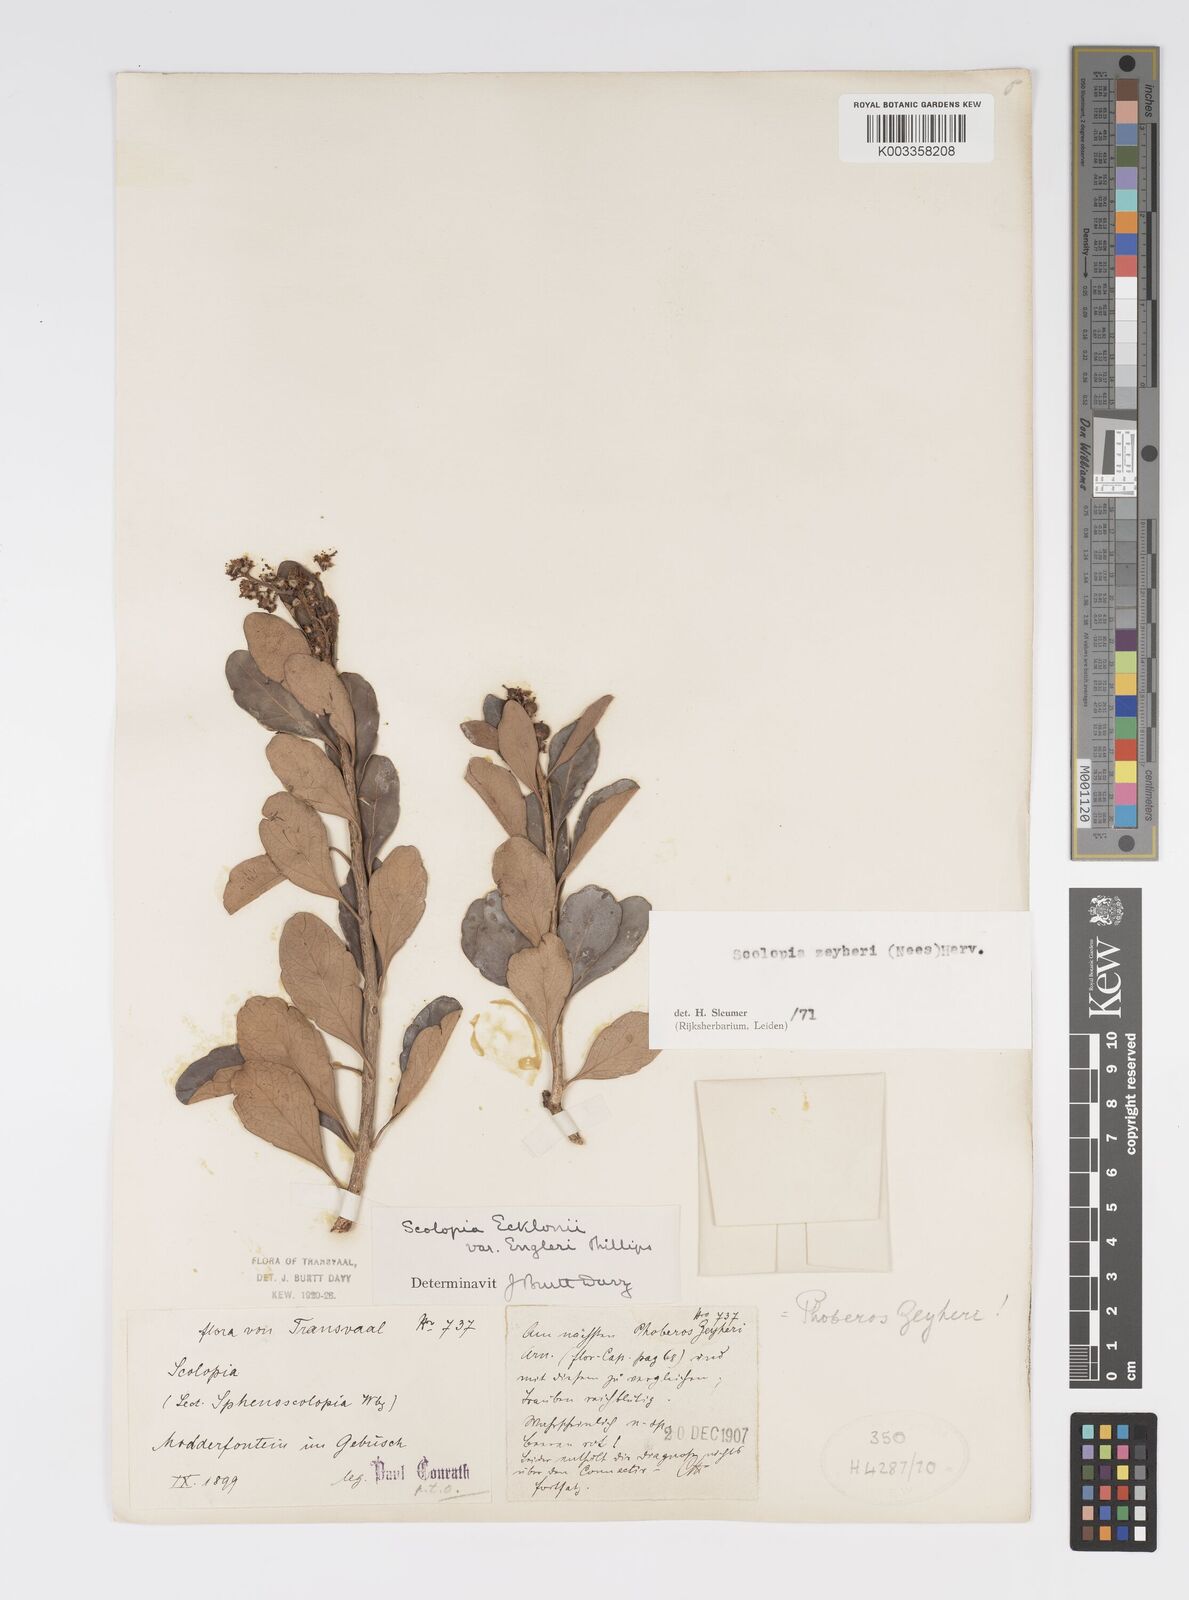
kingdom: Plantae
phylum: Tracheophyta
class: Magnoliopsida
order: Malpighiales
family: Salicaceae
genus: Scolopia
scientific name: Scolopia zeyheri
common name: Thorn pear
